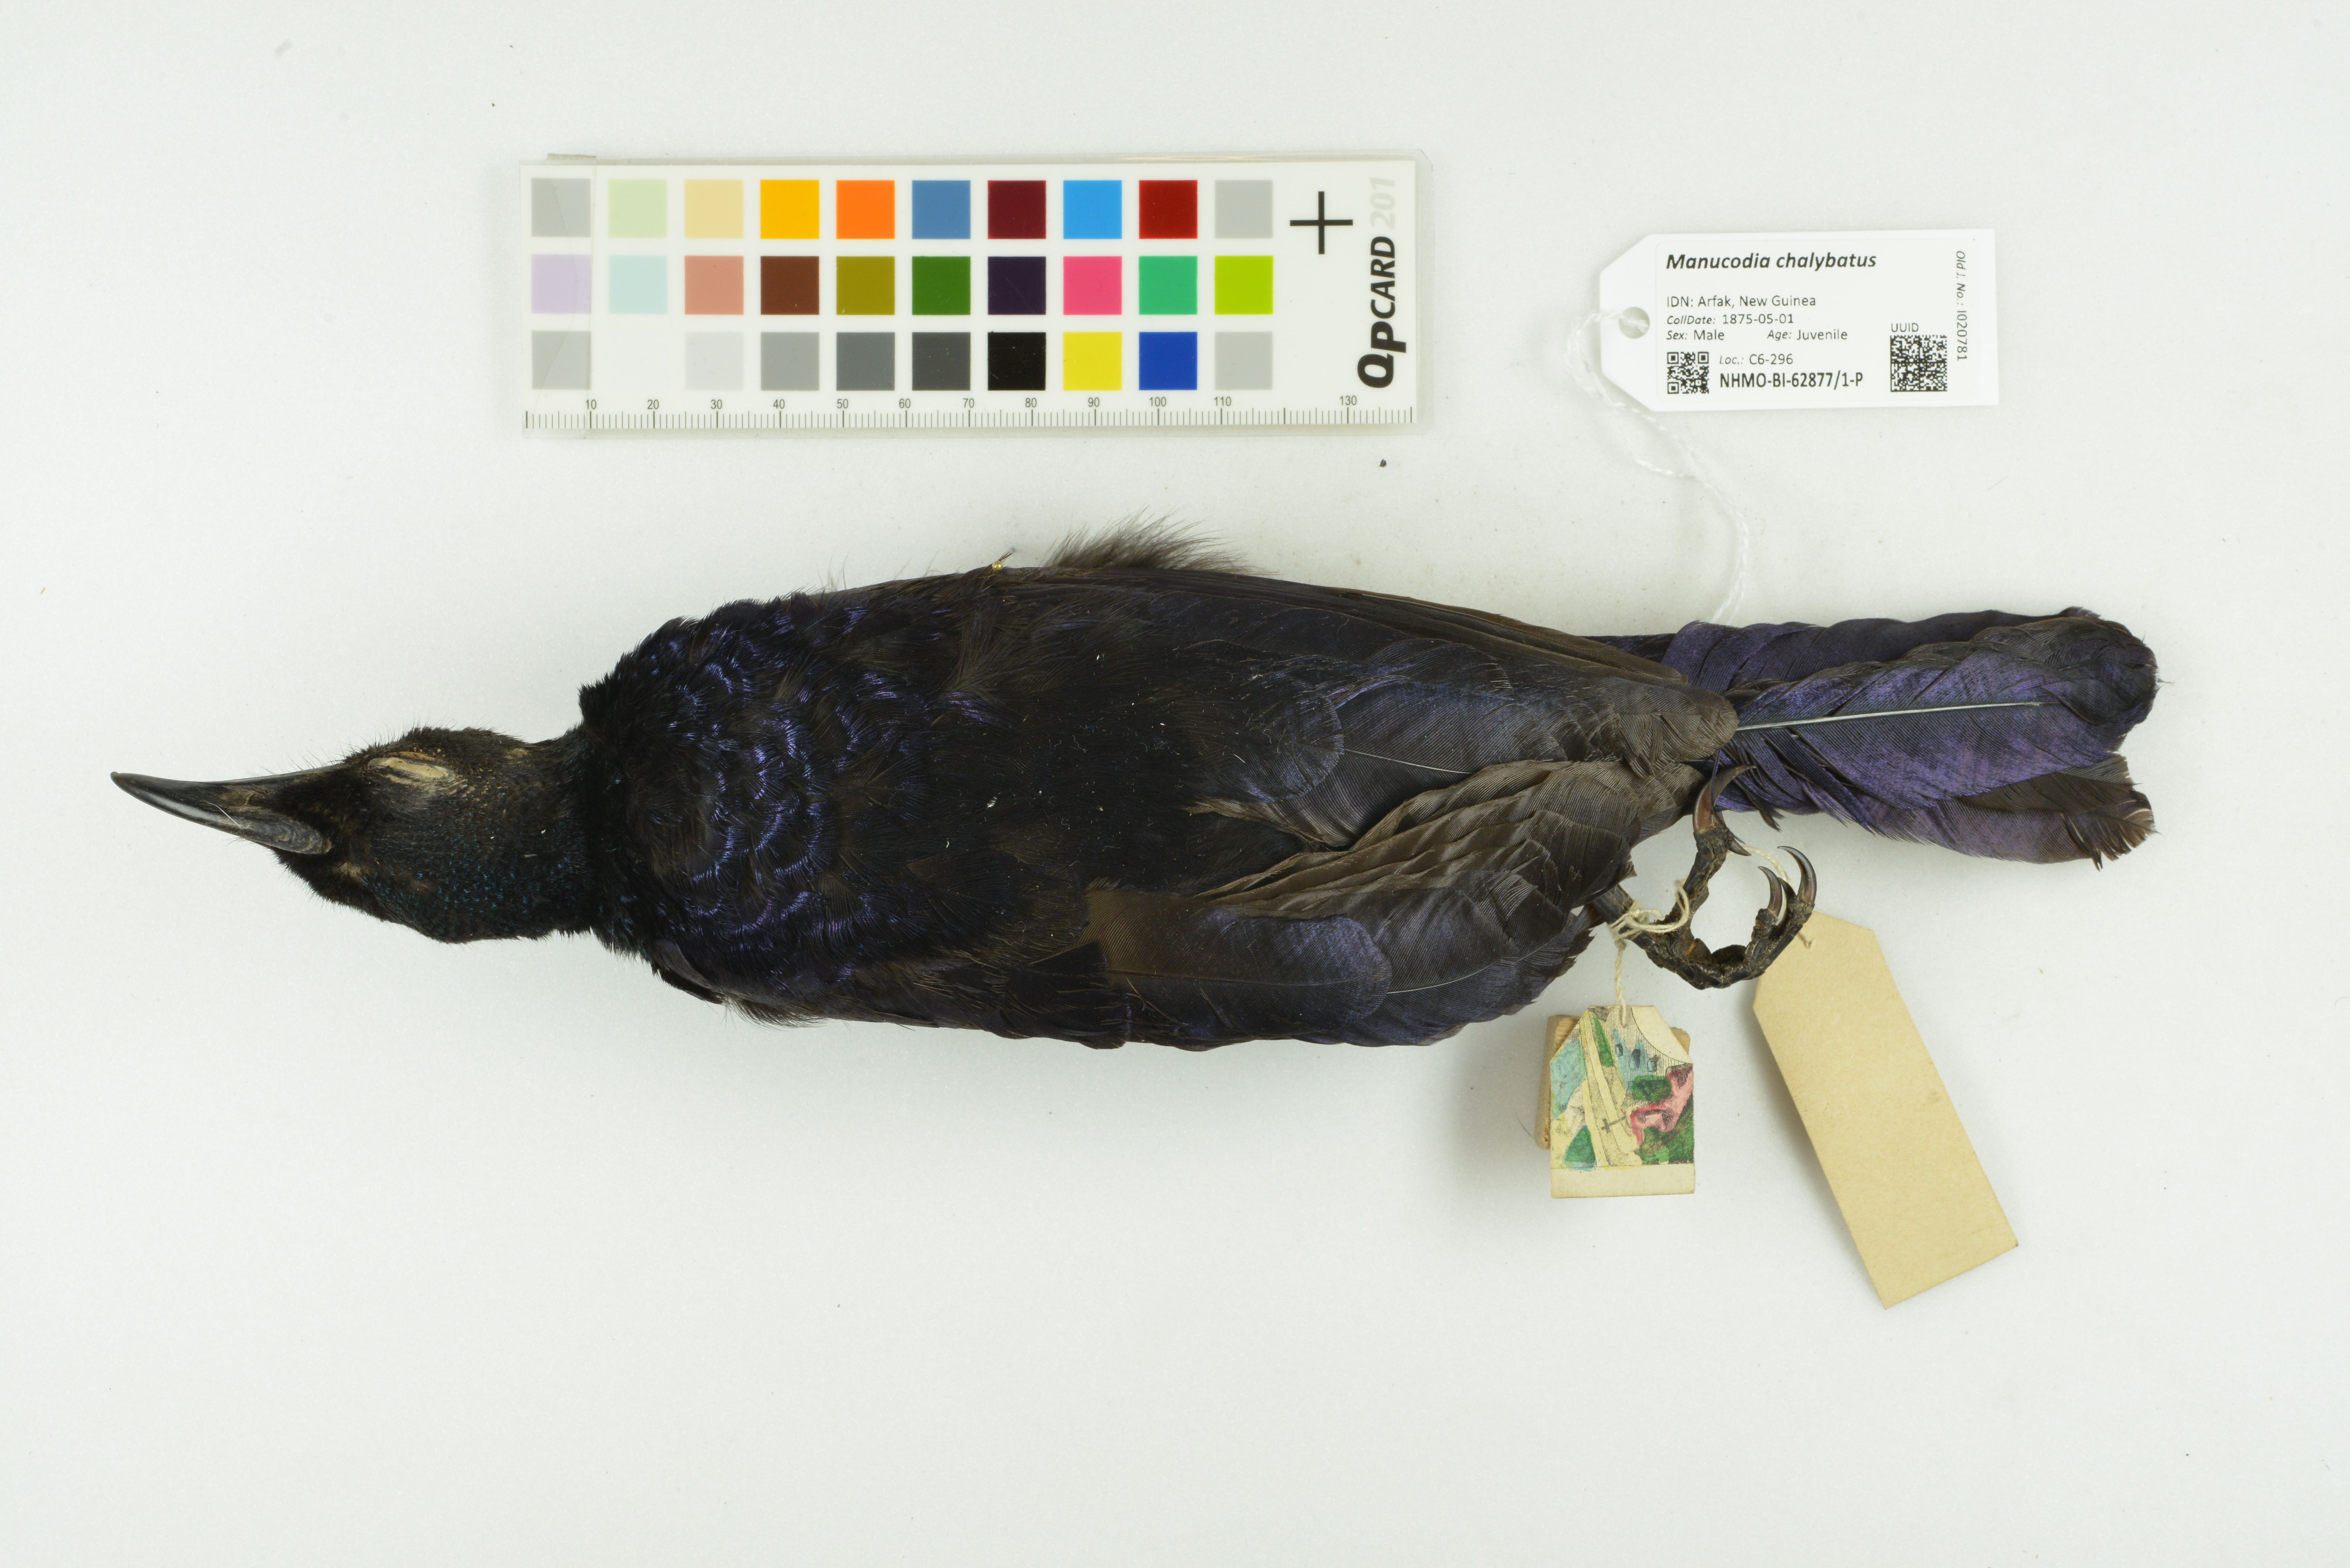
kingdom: Animalia
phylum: Chordata
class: Aves
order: Passeriformes
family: Paradisaeidae
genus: Manucodia
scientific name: Manucodia chalybatus
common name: Crinkle-collared manucode
